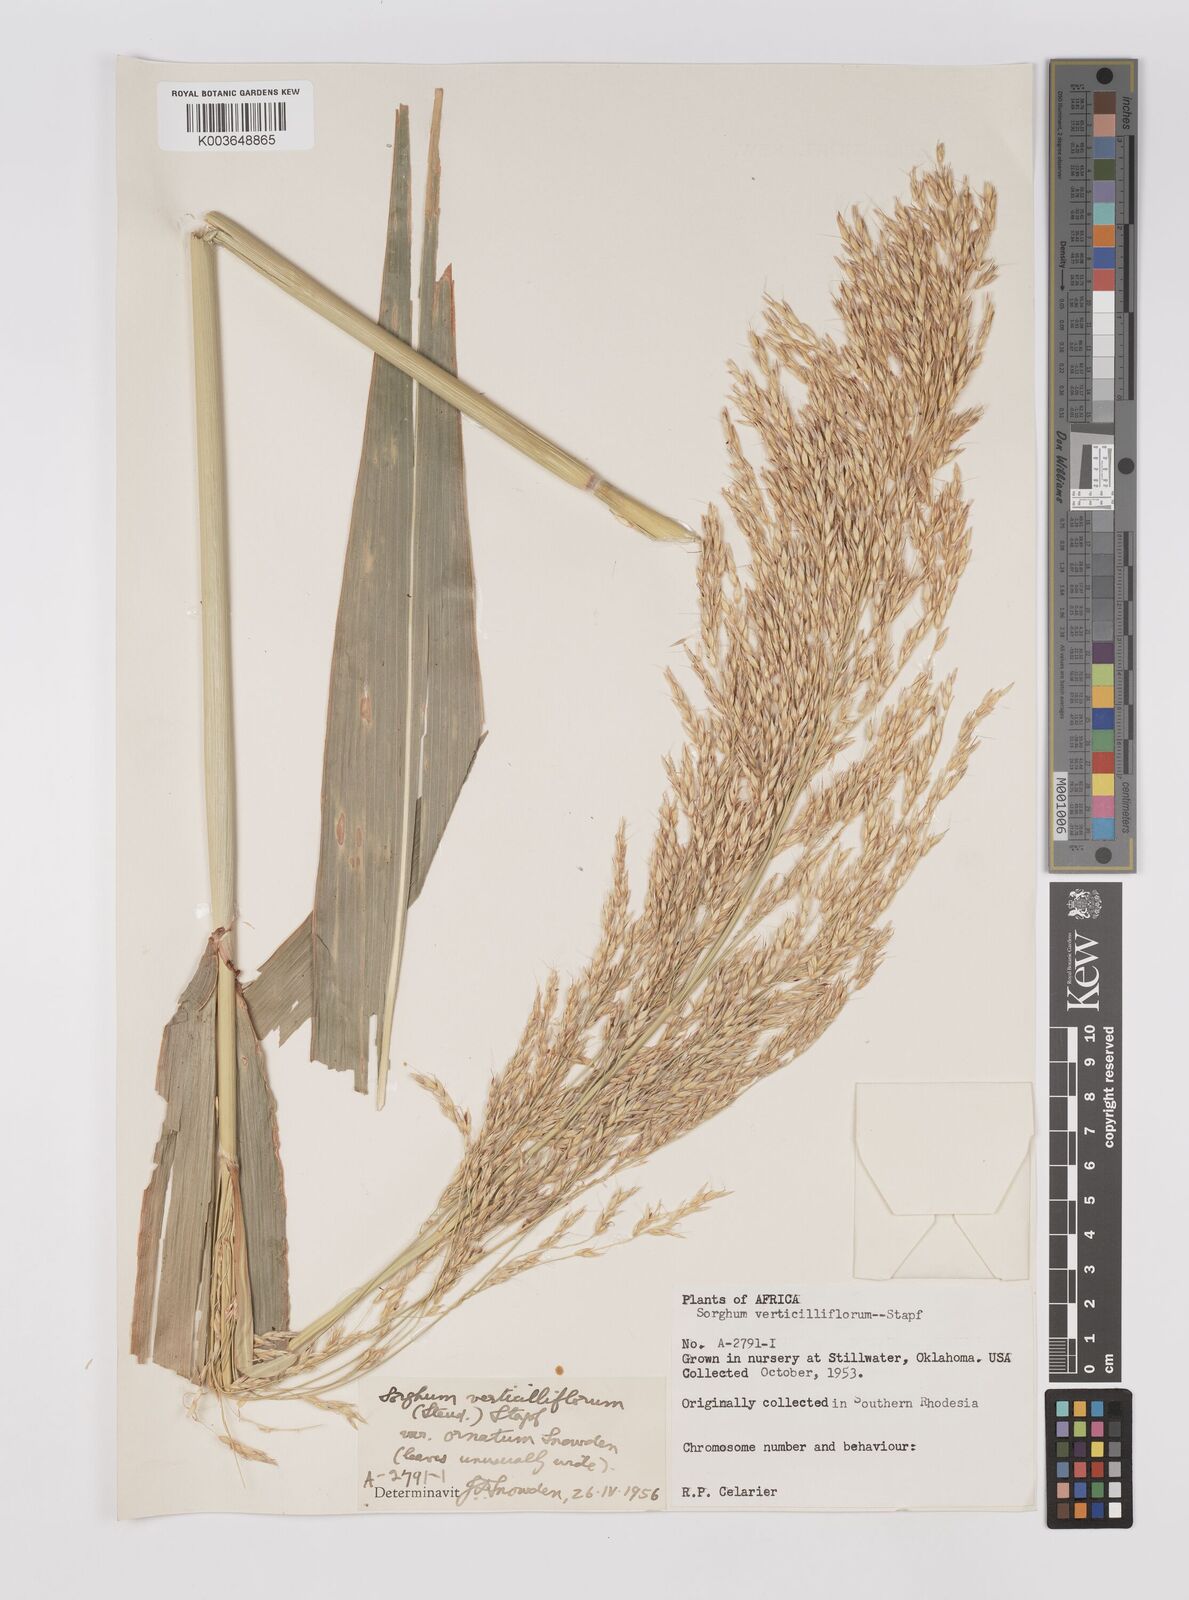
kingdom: Plantae
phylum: Tracheophyta
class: Liliopsida
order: Poales
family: Poaceae
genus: Sorghum
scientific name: Sorghum arundinaceum
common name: Sorghum
